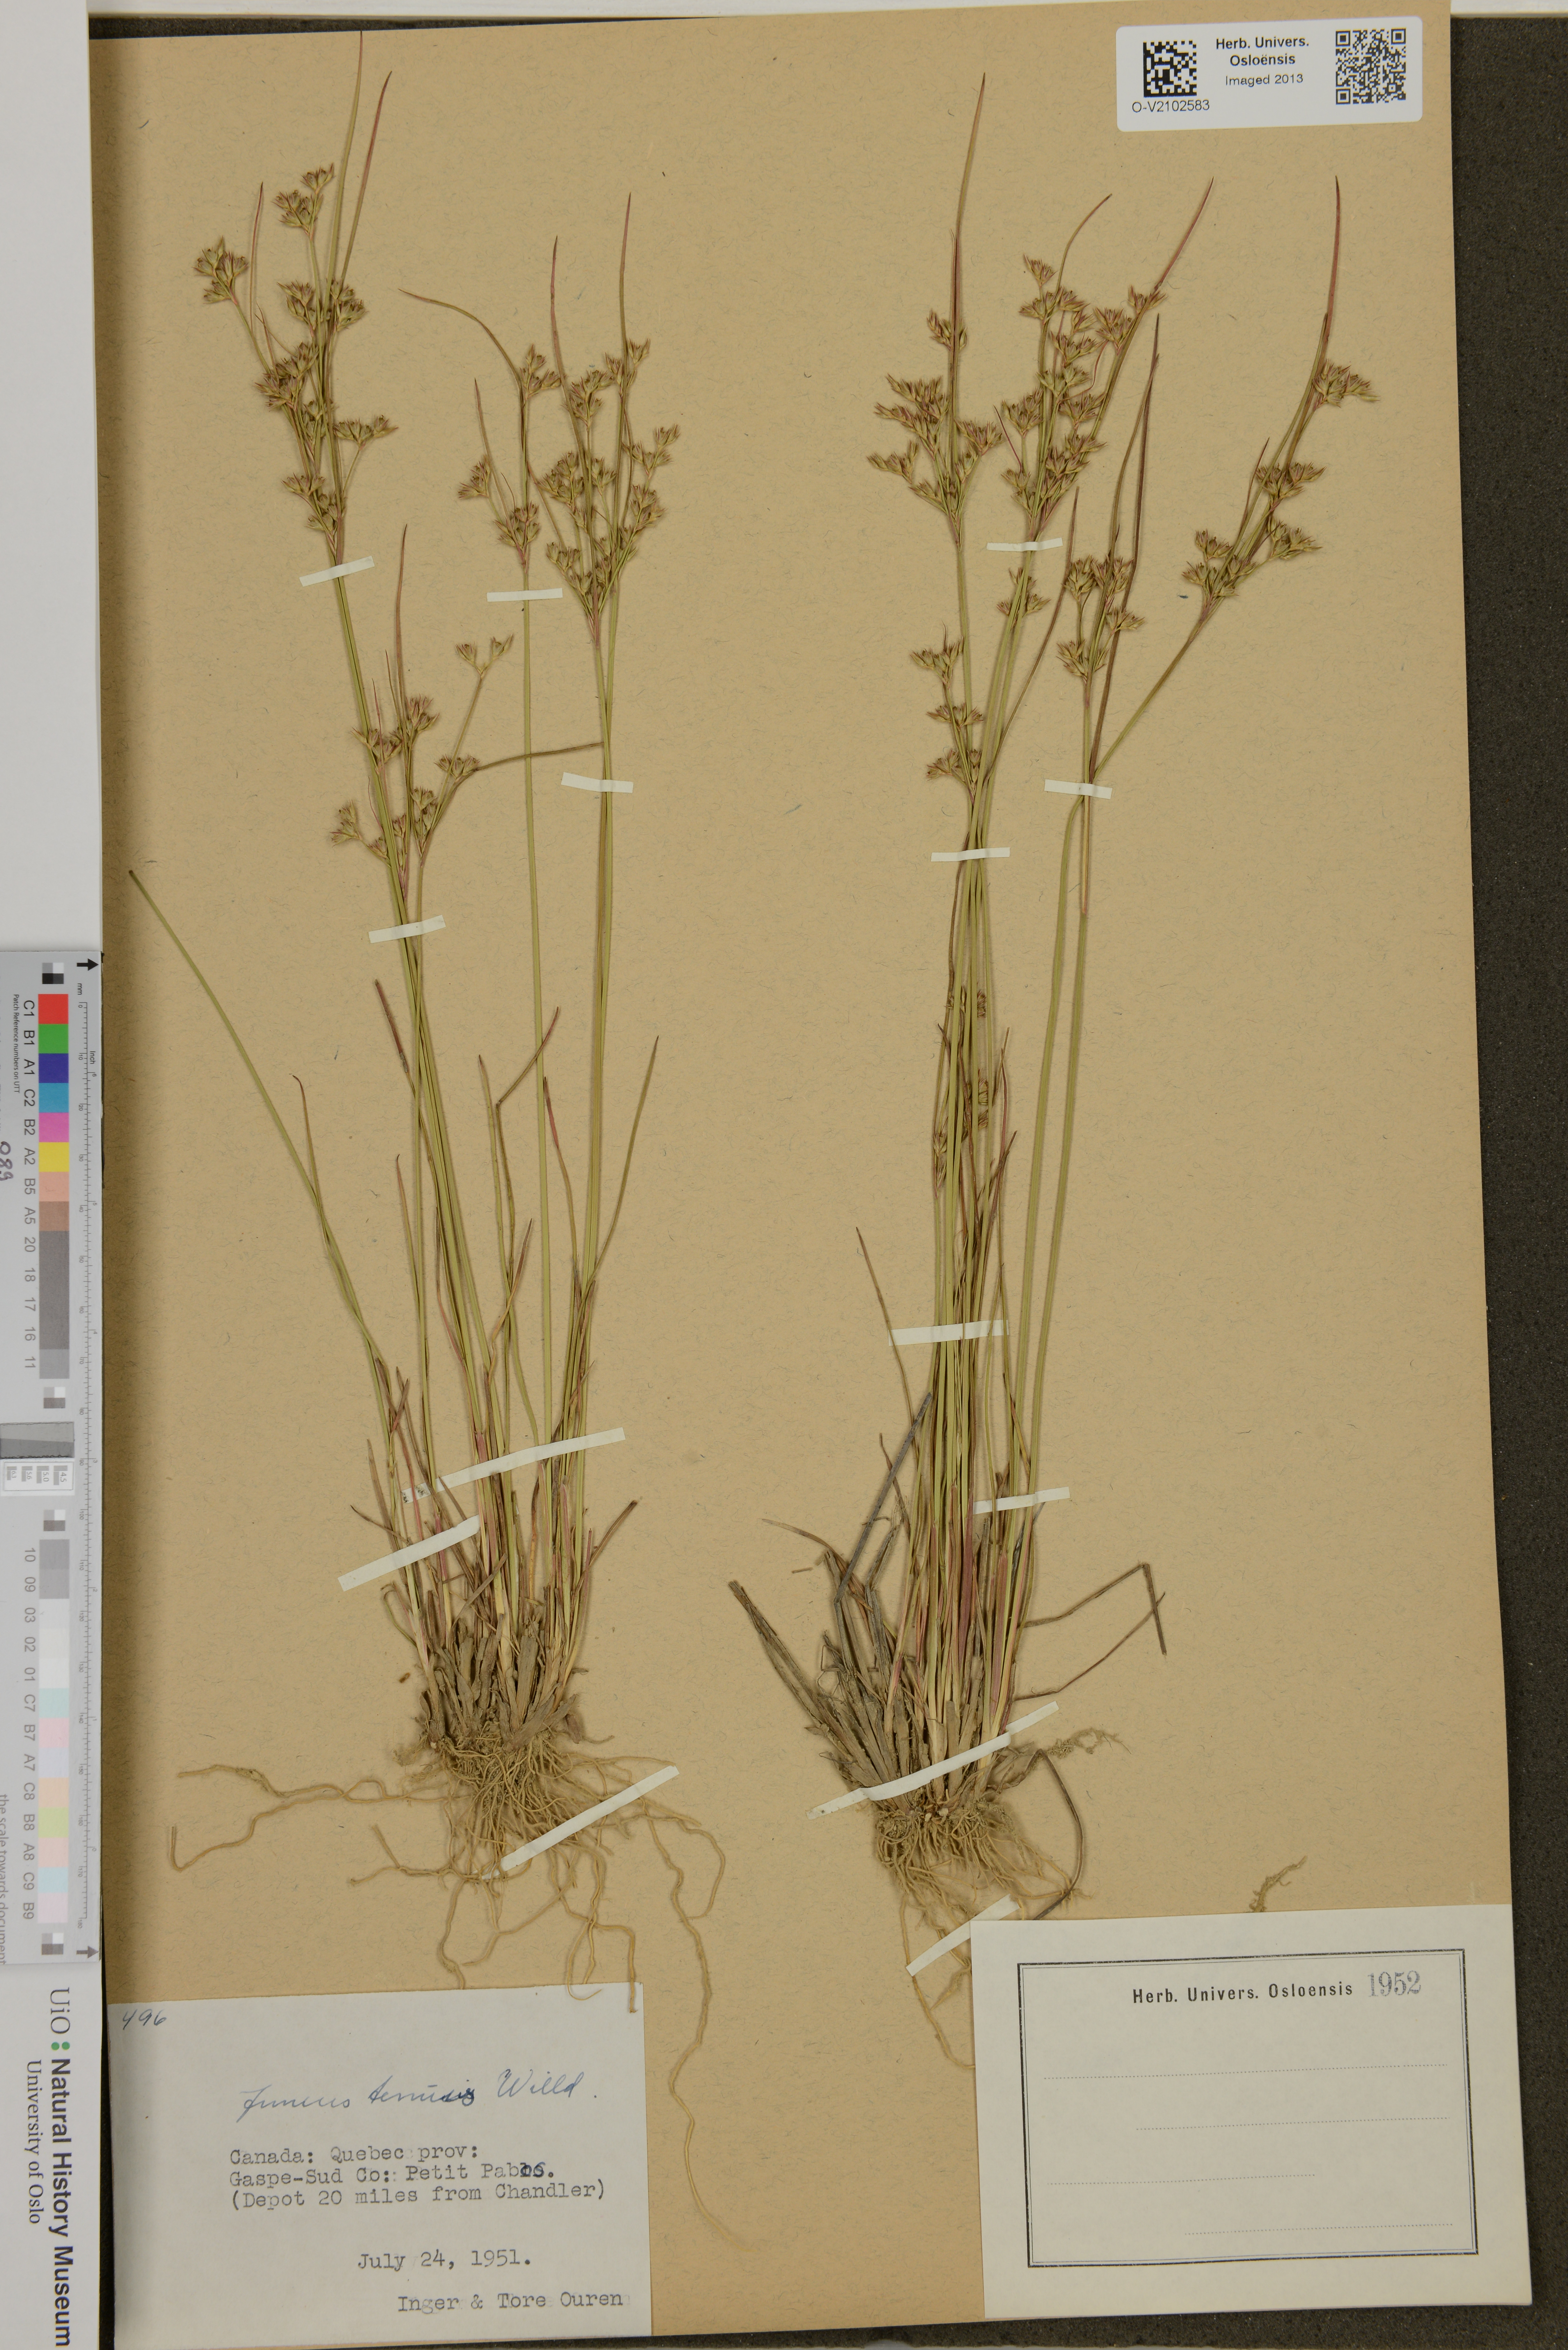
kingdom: Plantae
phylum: Tracheophyta
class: Liliopsida
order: Poales
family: Juncaceae
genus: Juncus
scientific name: Juncus tenuis
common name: Slender rush
